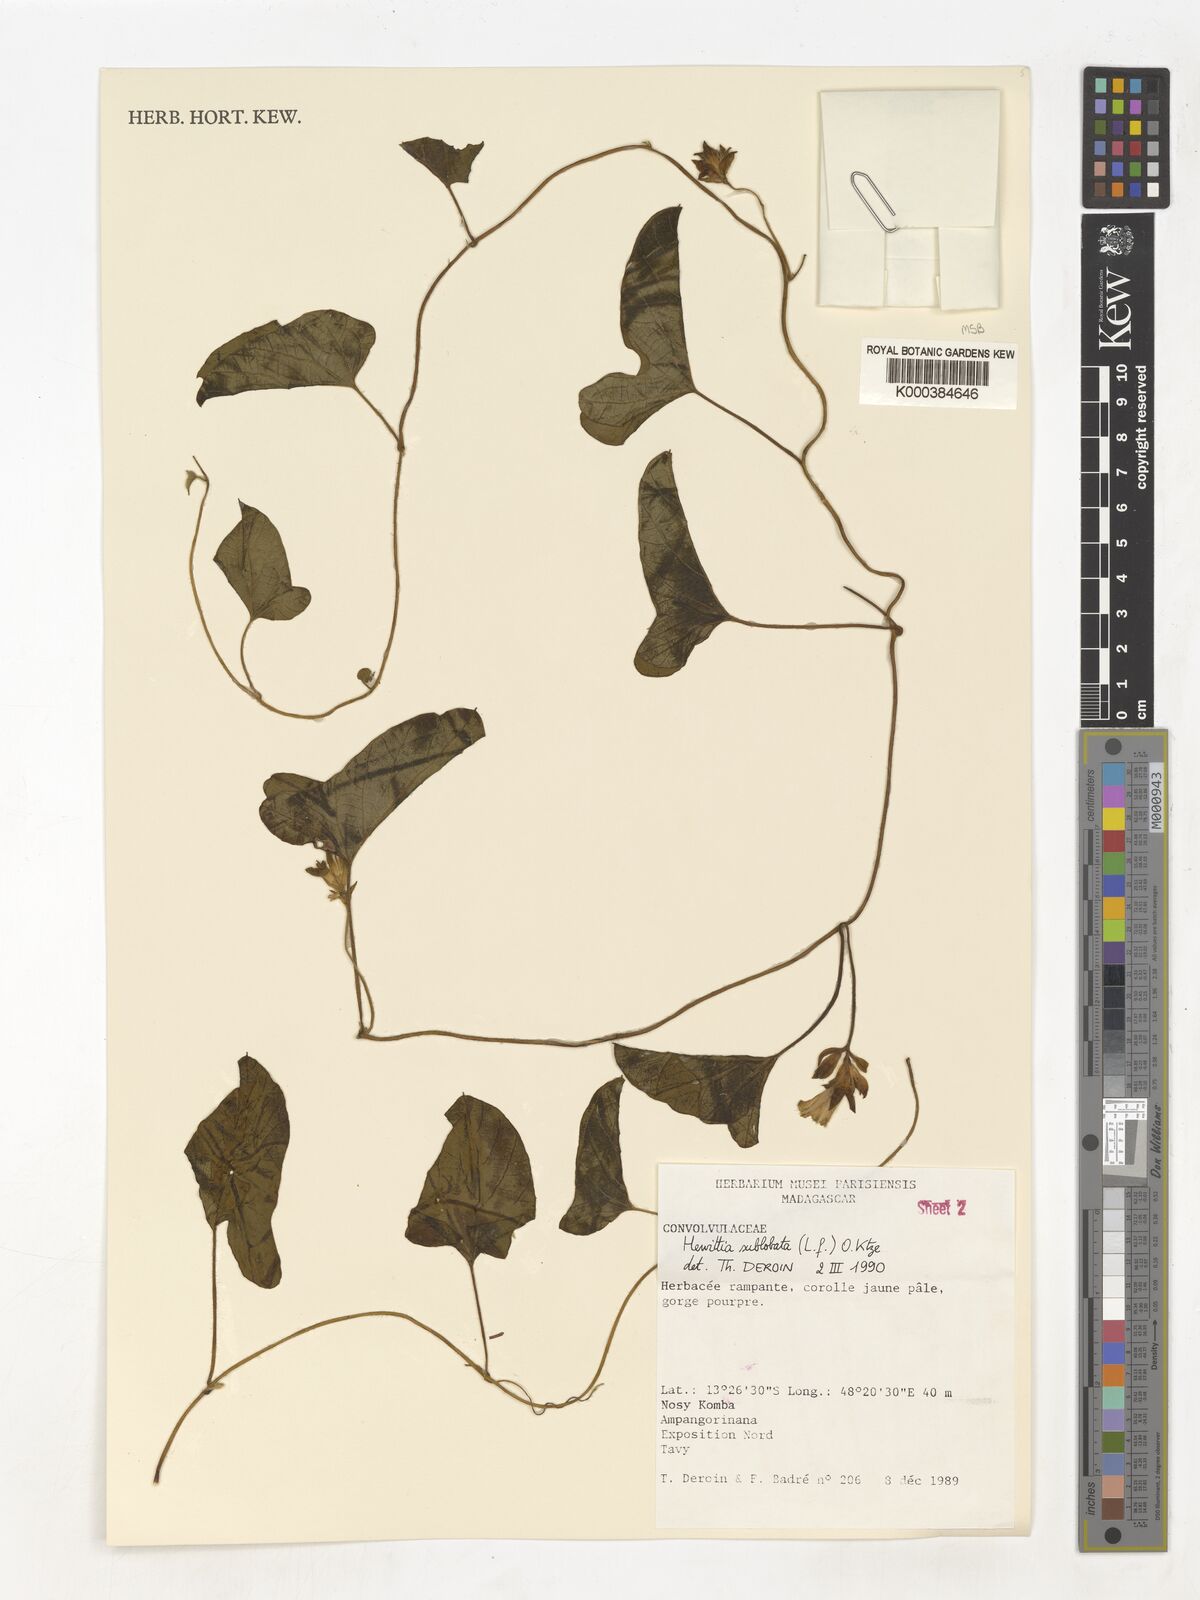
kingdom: Plantae
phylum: Tracheophyta
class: Magnoliopsida
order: Solanales
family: Convolvulaceae
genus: Hewittia
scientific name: Hewittia
